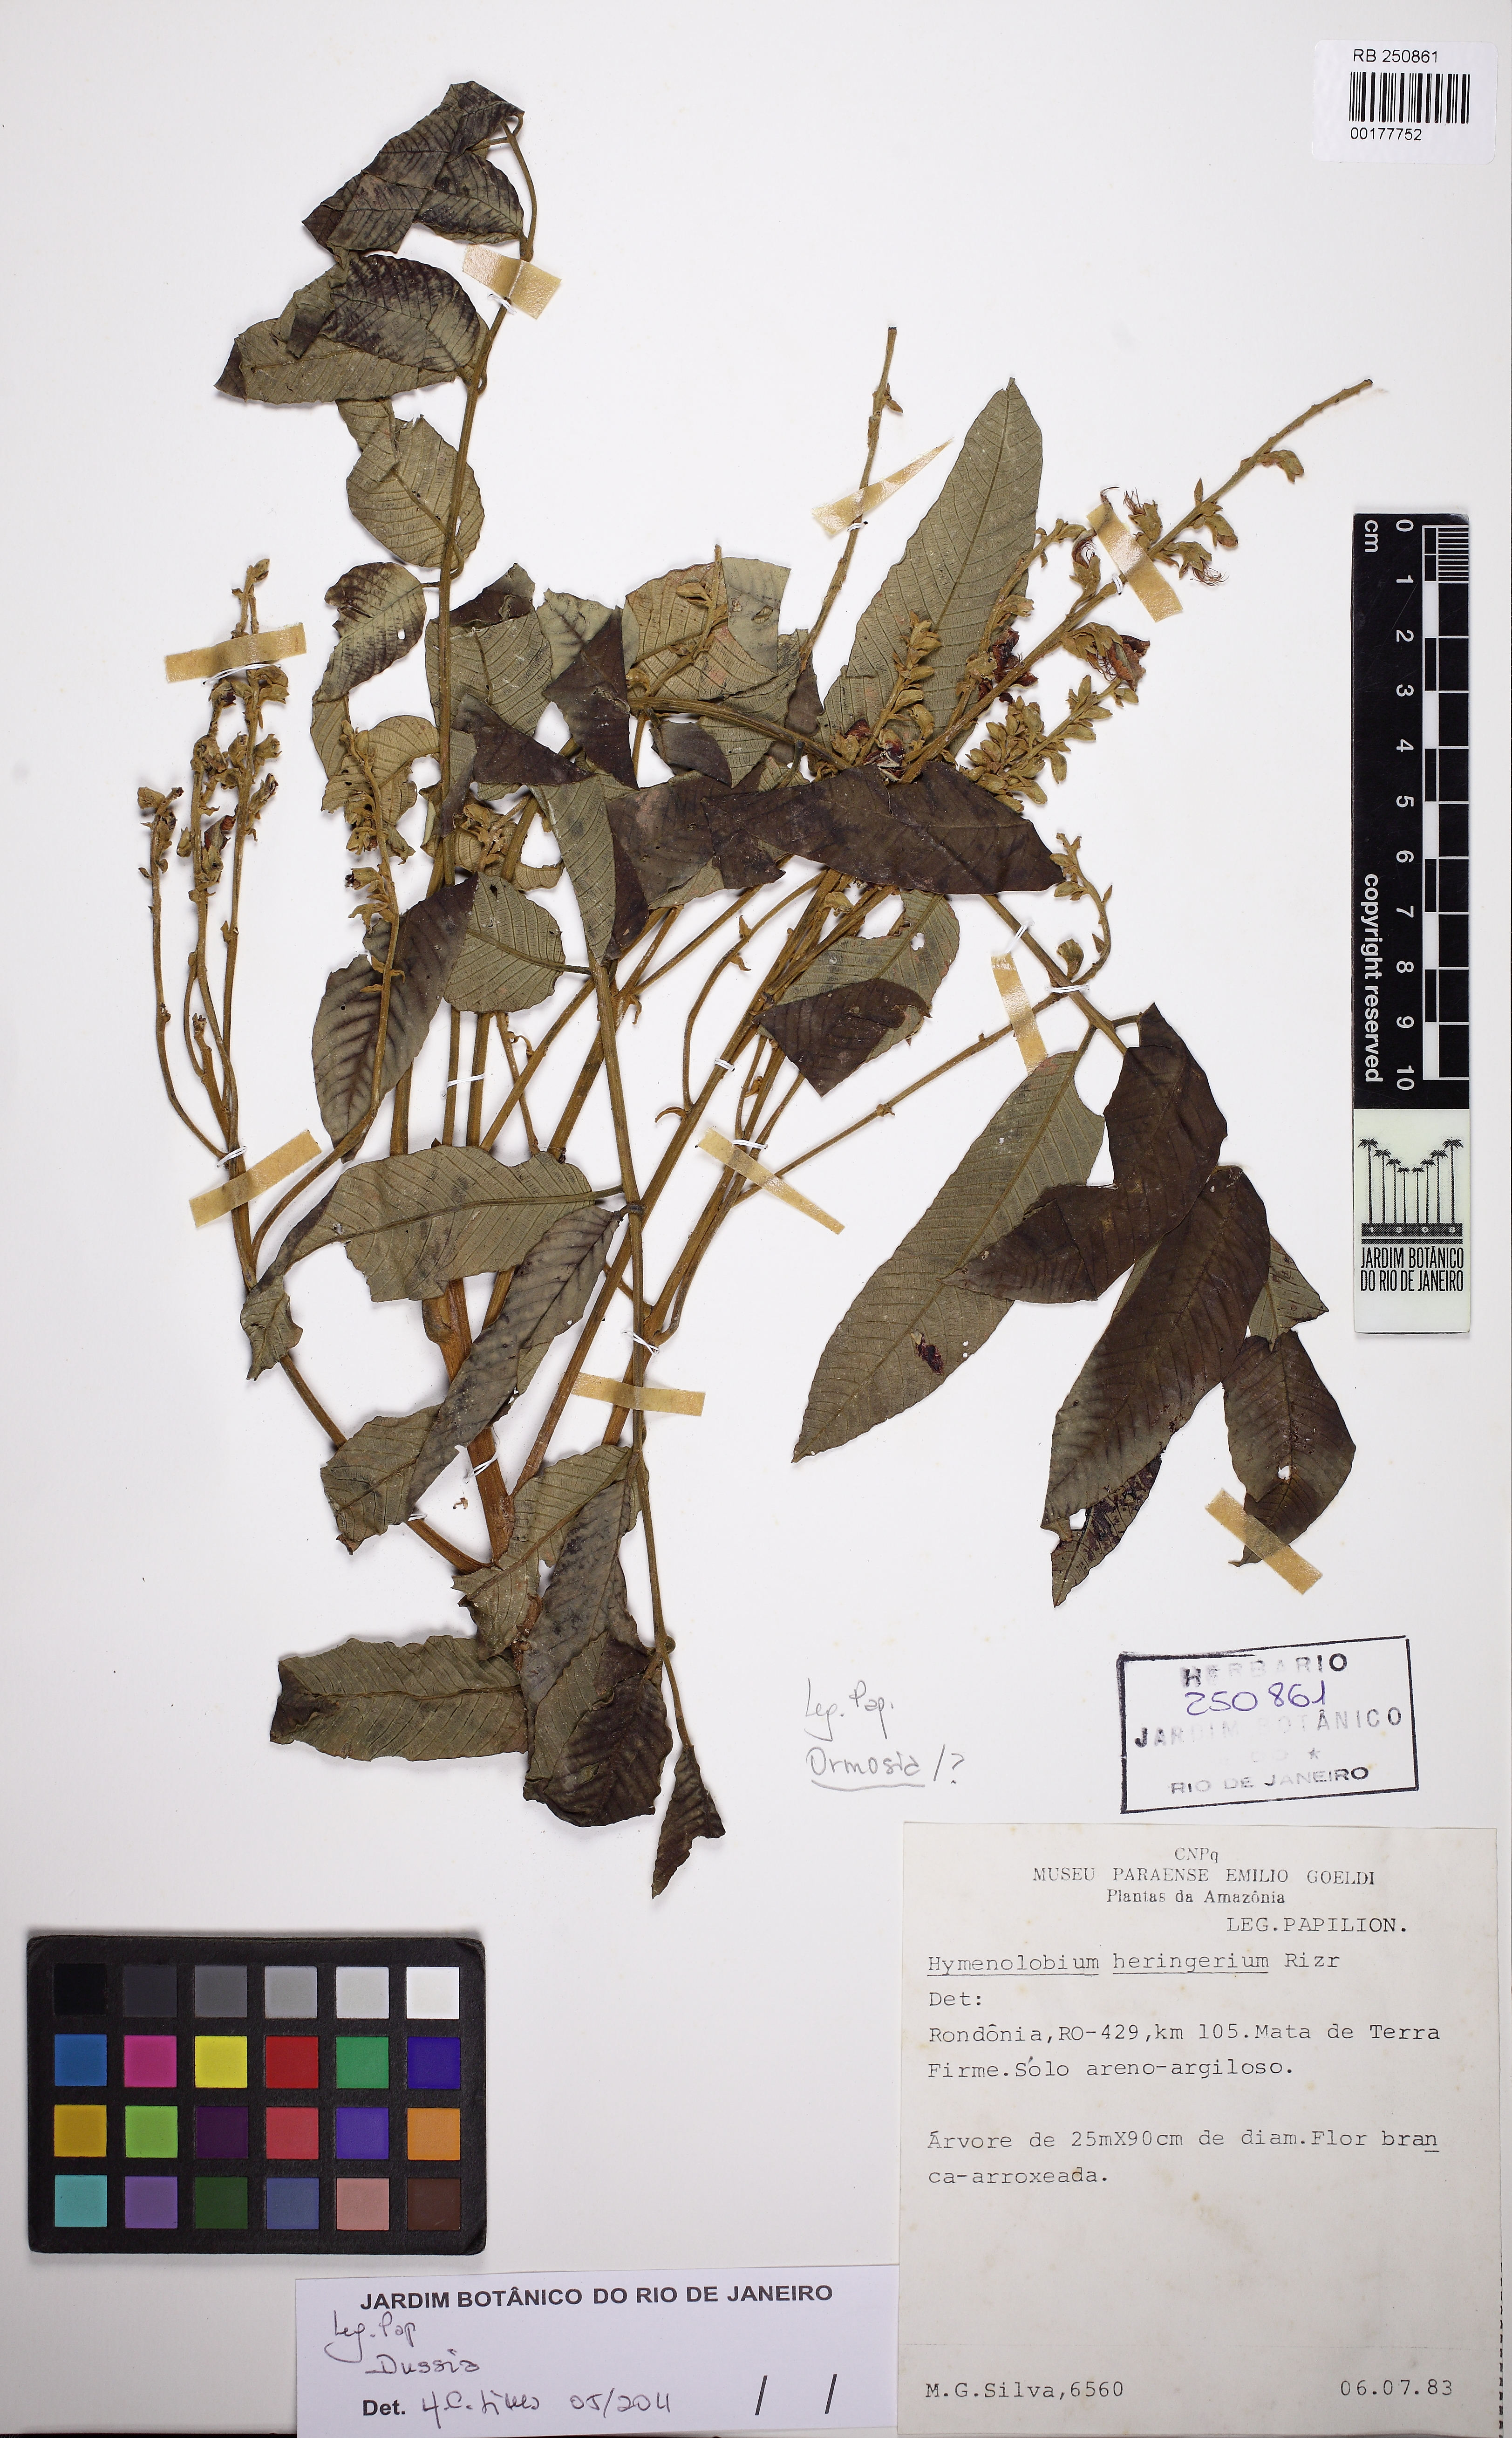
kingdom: Plantae
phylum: Tracheophyta
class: Magnoliopsida
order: Fabales
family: Fabaceae
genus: Dussia
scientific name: Dussia tessmannii
